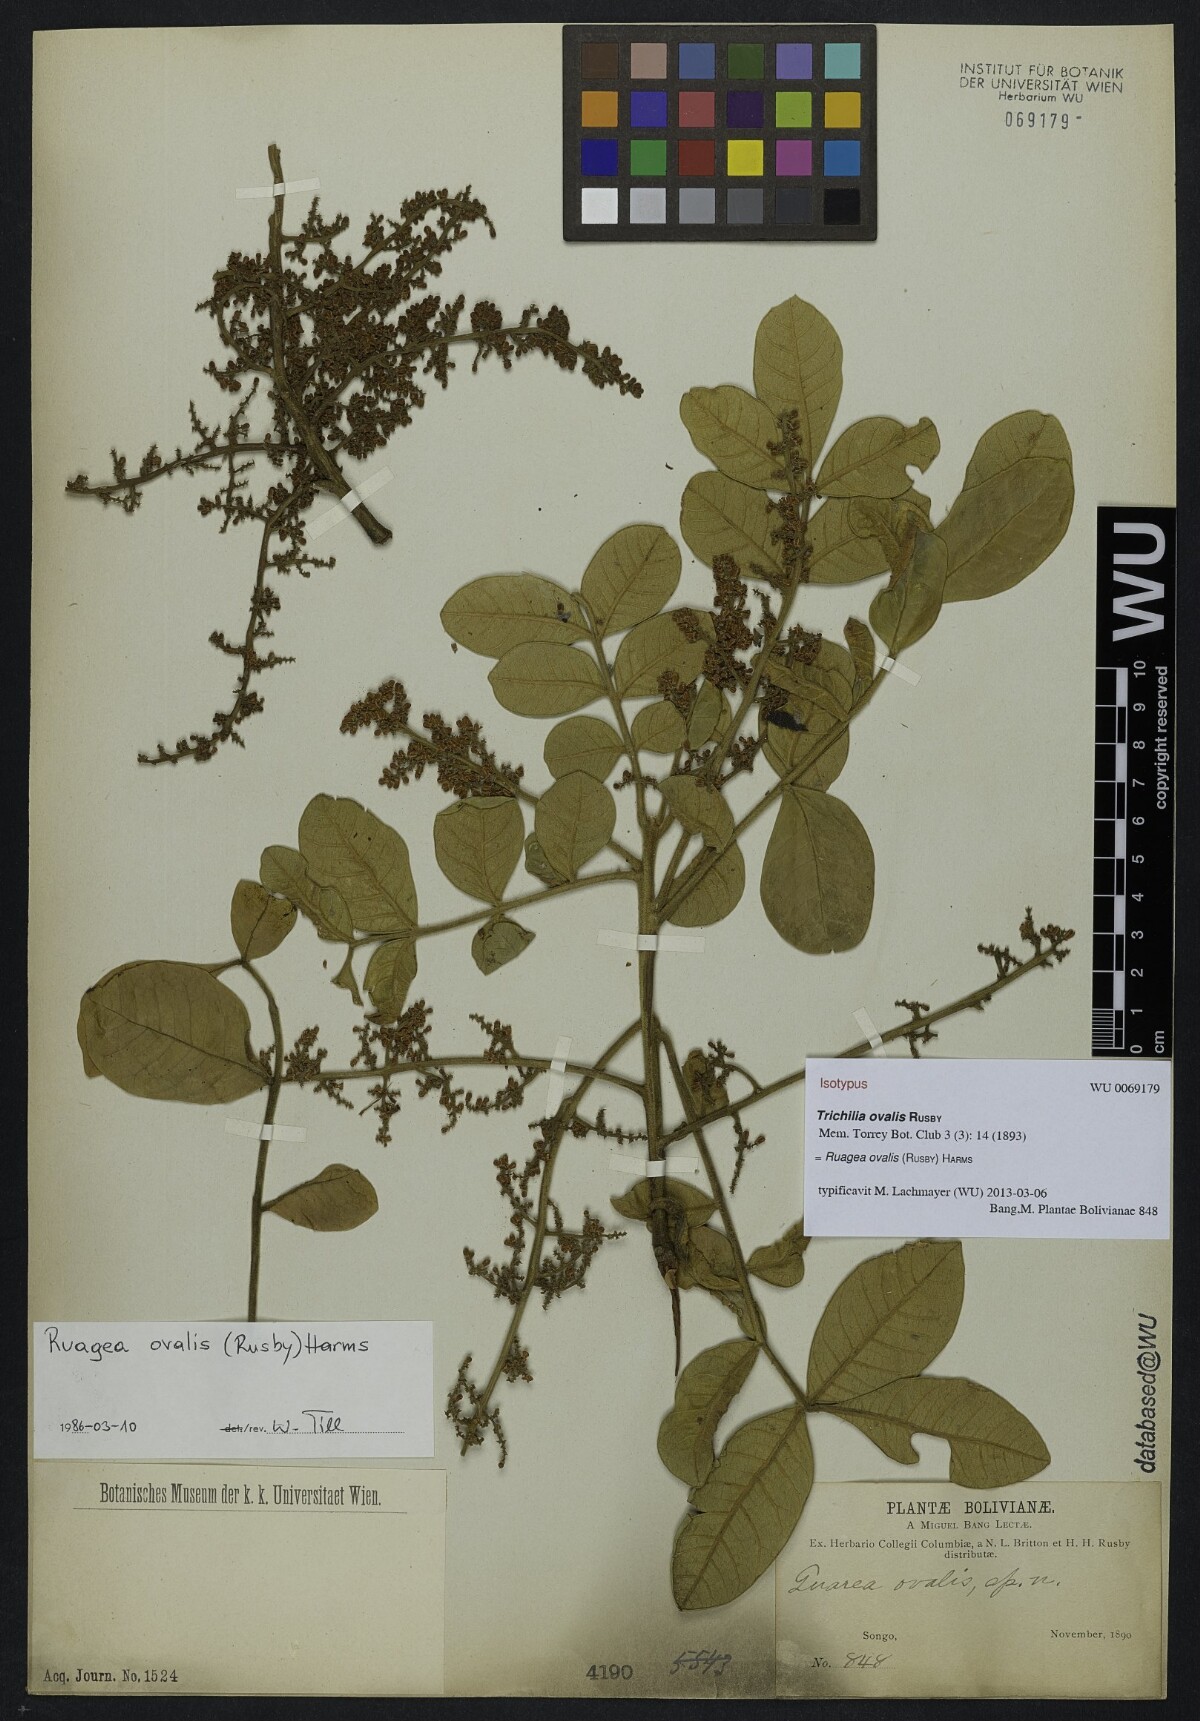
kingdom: Plantae
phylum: Tracheophyta
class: Magnoliopsida
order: Sapindales
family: Meliaceae
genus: Ruagea
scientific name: Ruagea ovalis
